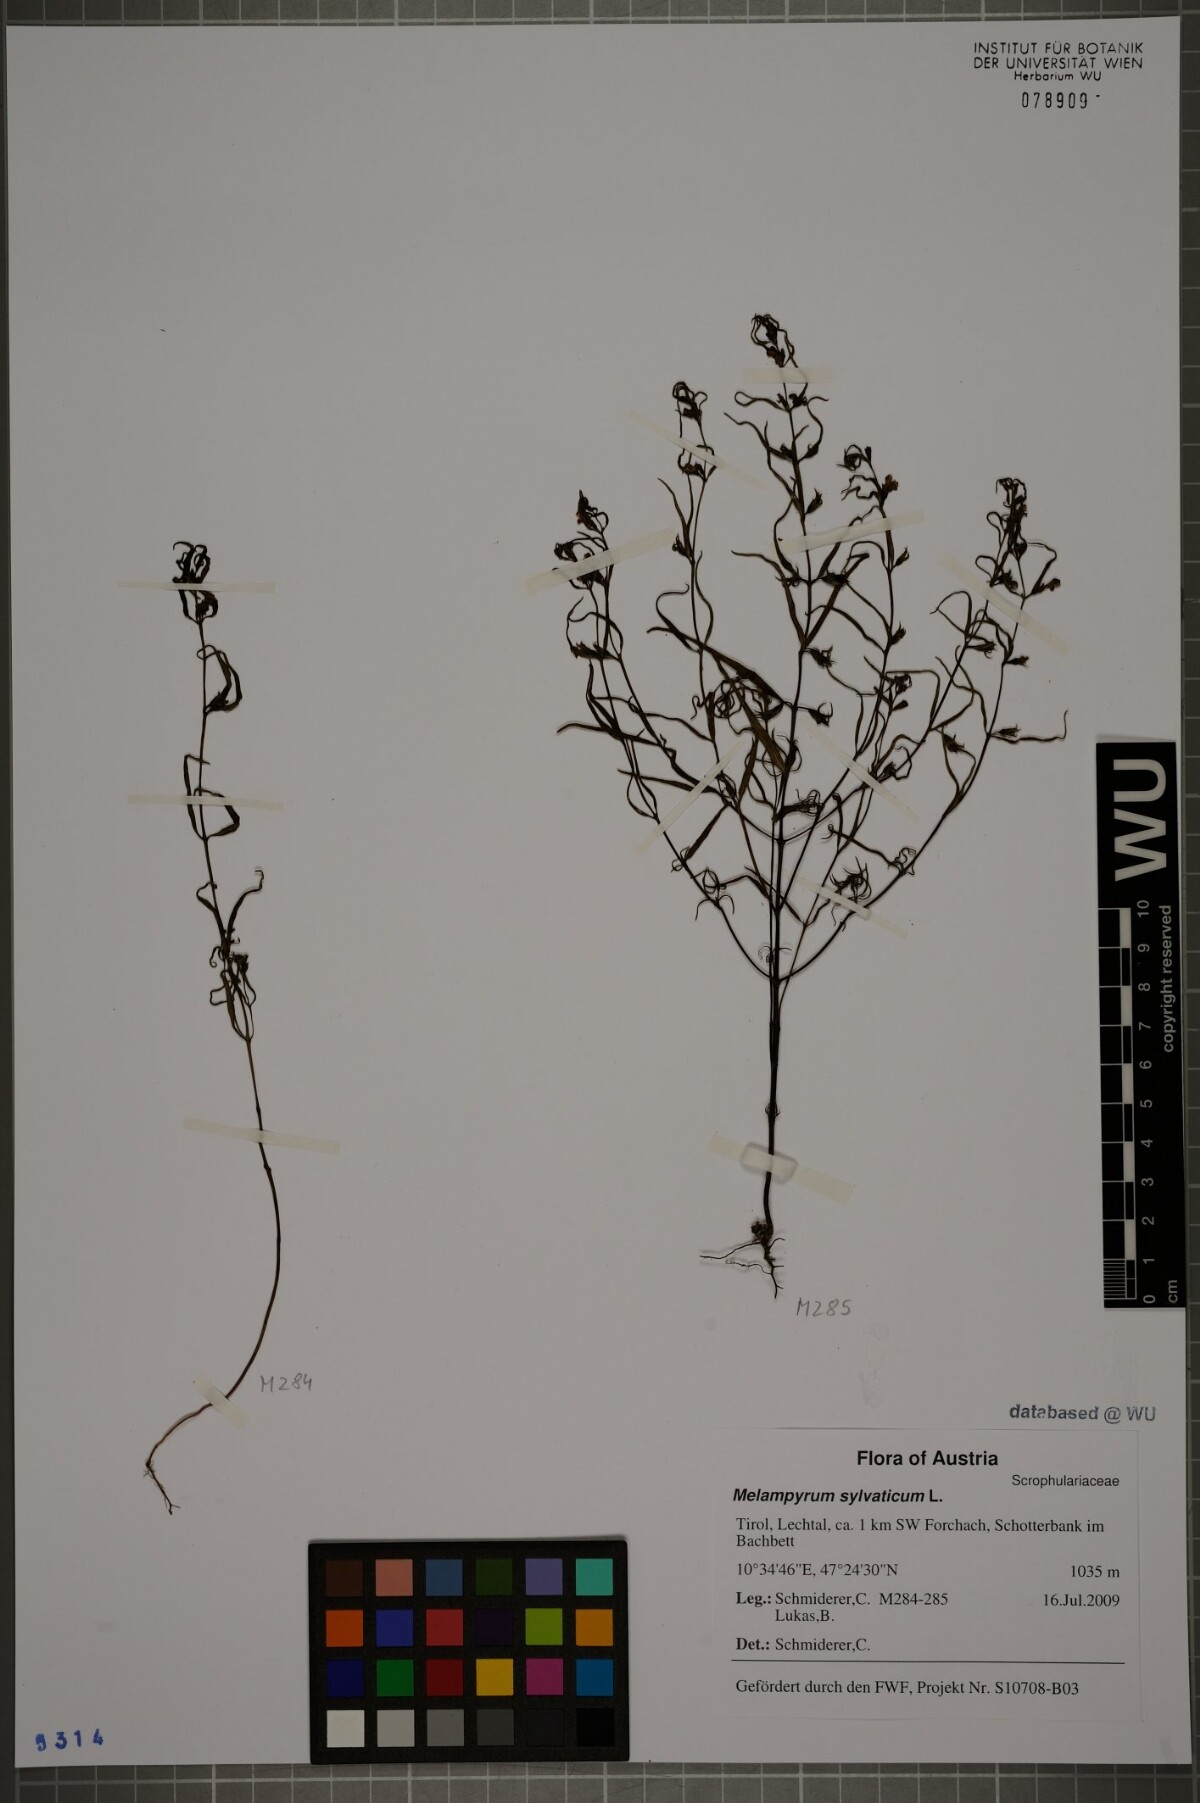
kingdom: Plantae
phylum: Tracheophyta
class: Magnoliopsida
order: Lamiales
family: Orobanchaceae
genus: Melampyrum
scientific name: Melampyrum sylvaticum
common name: Small cow-wheat
